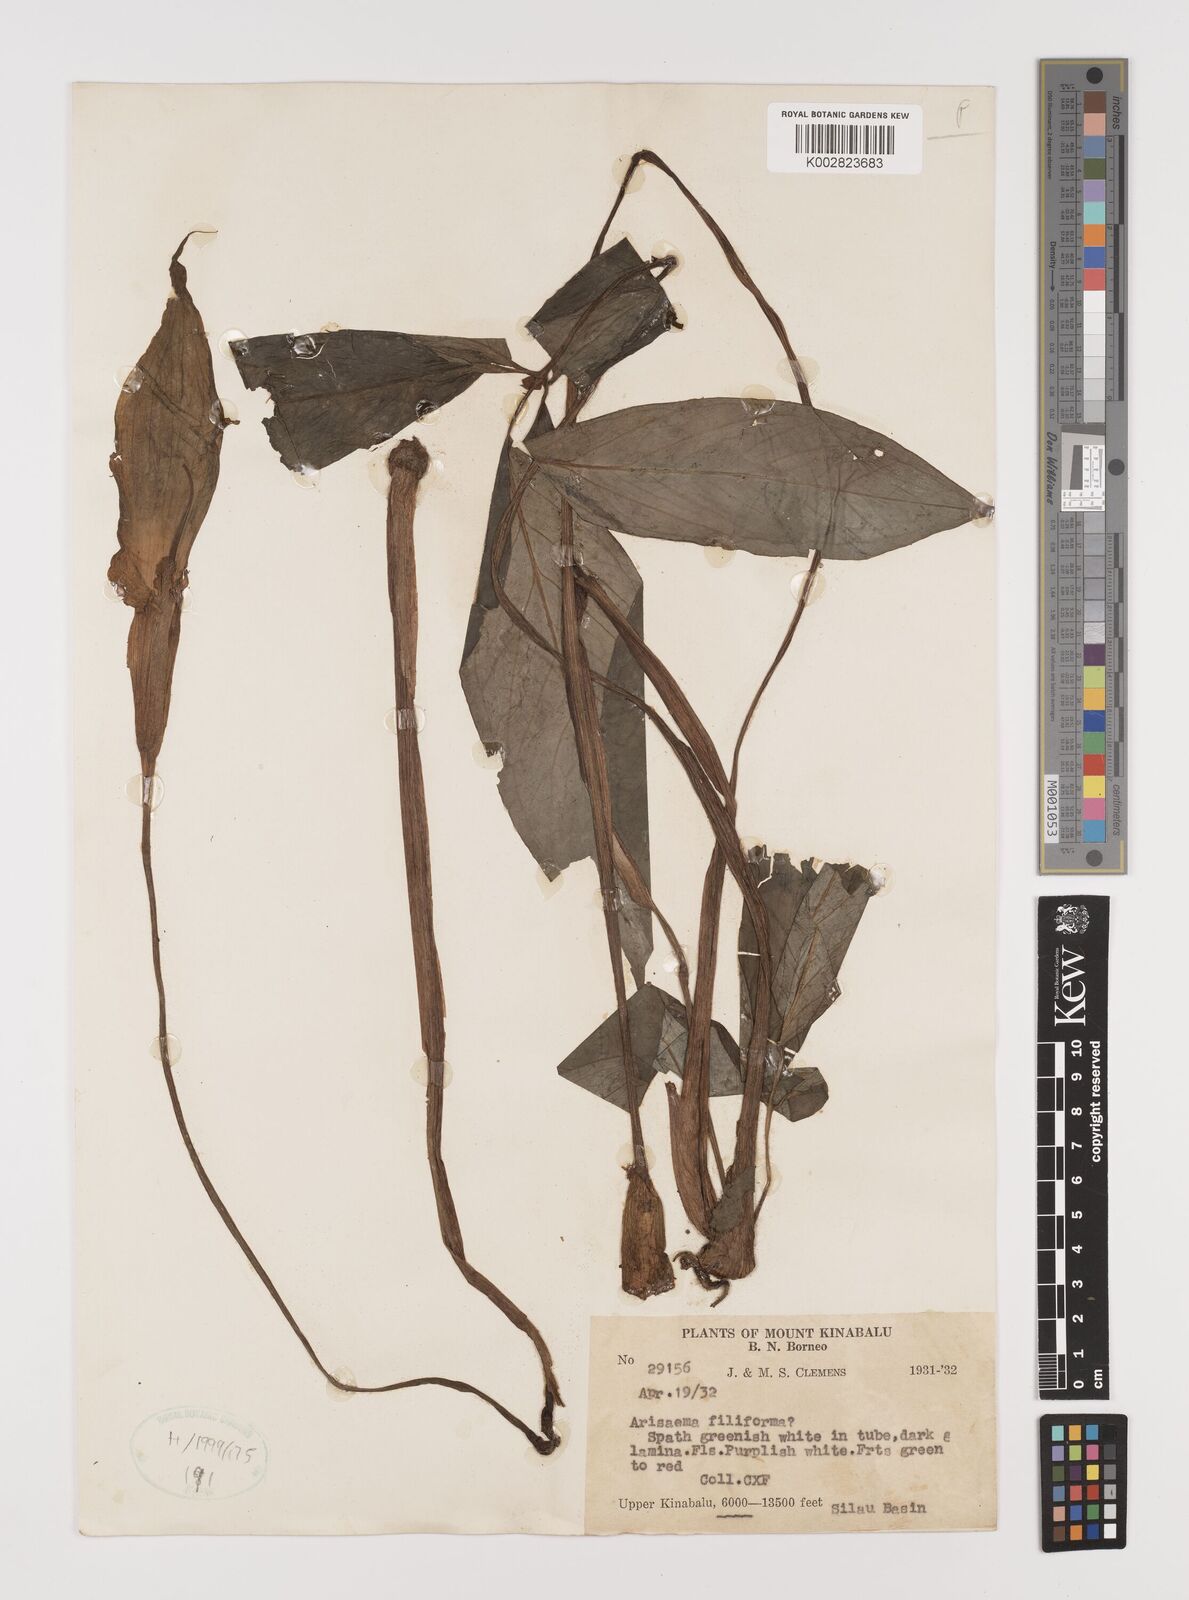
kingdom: Plantae
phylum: Tracheophyta
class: Liliopsida
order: Alismatales
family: Araceae
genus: Arisaema
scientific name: Arisaema filiforme
